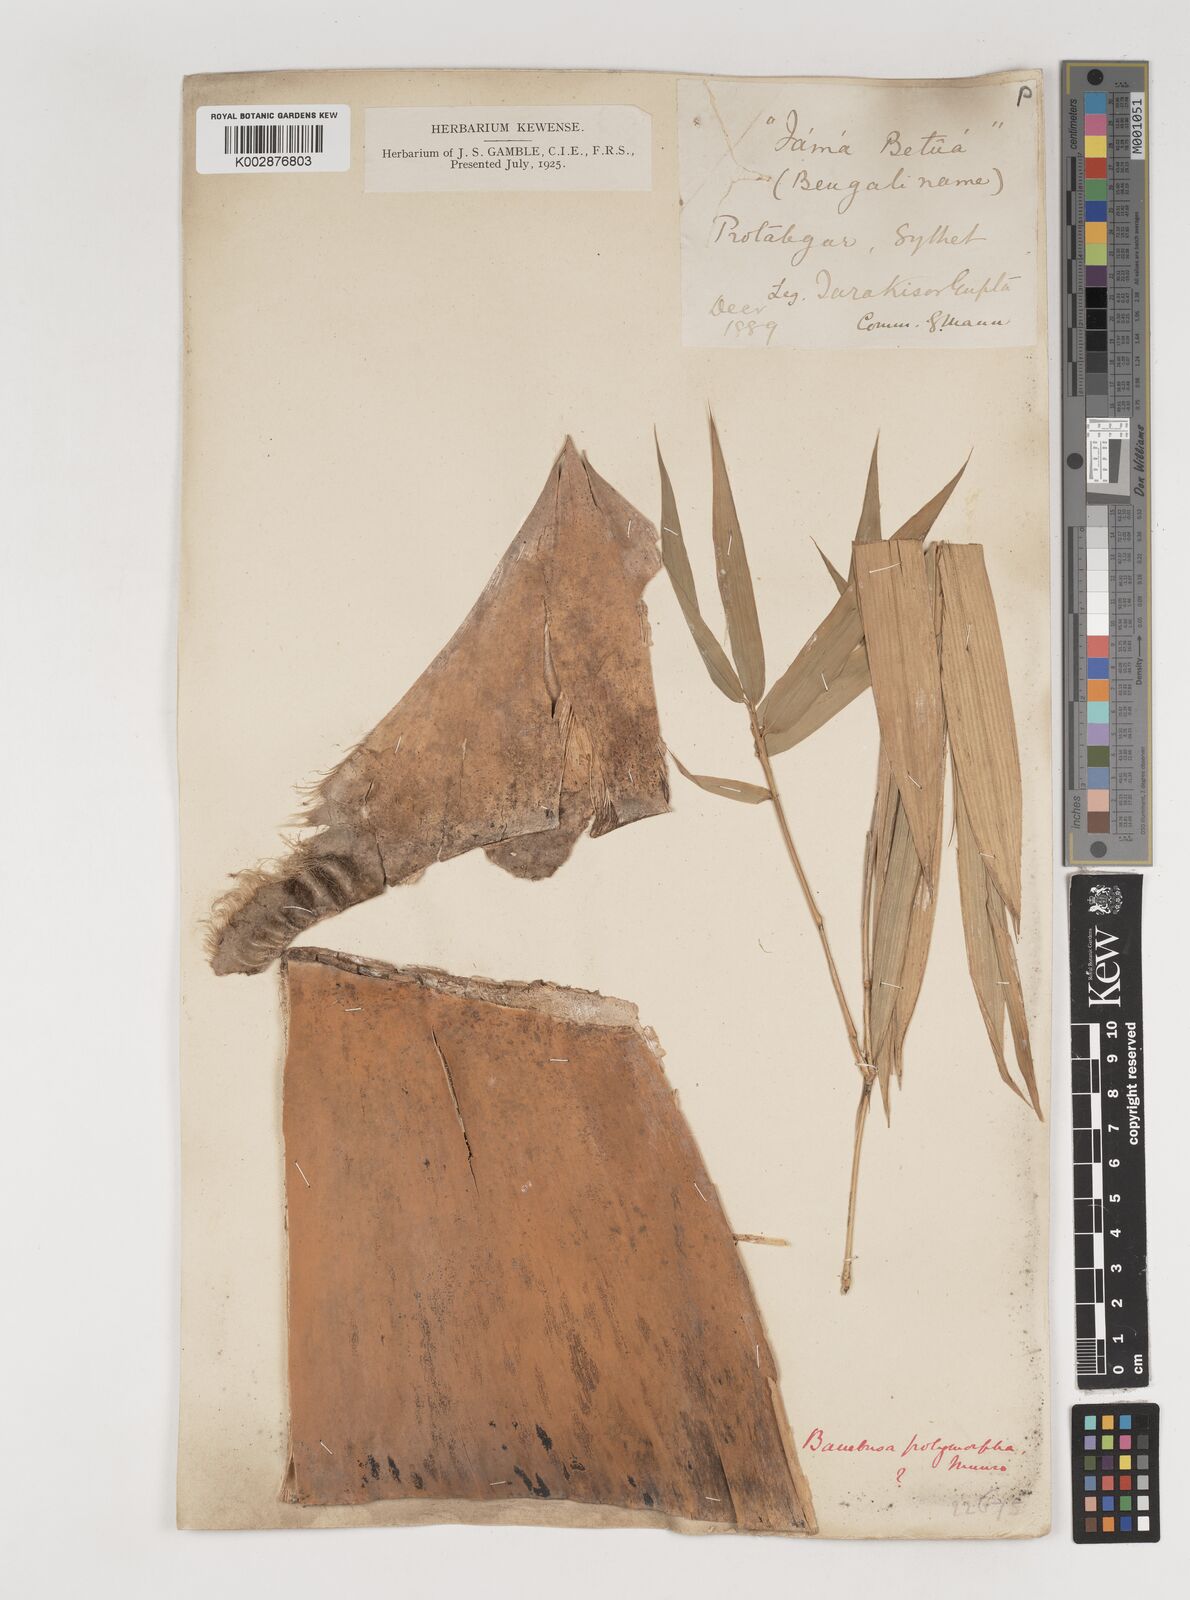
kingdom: Plantae
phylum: Tracheophyta
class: Liliopsida
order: Poales
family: Poaceae
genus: Bambusa
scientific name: Bambusa polymorpha
